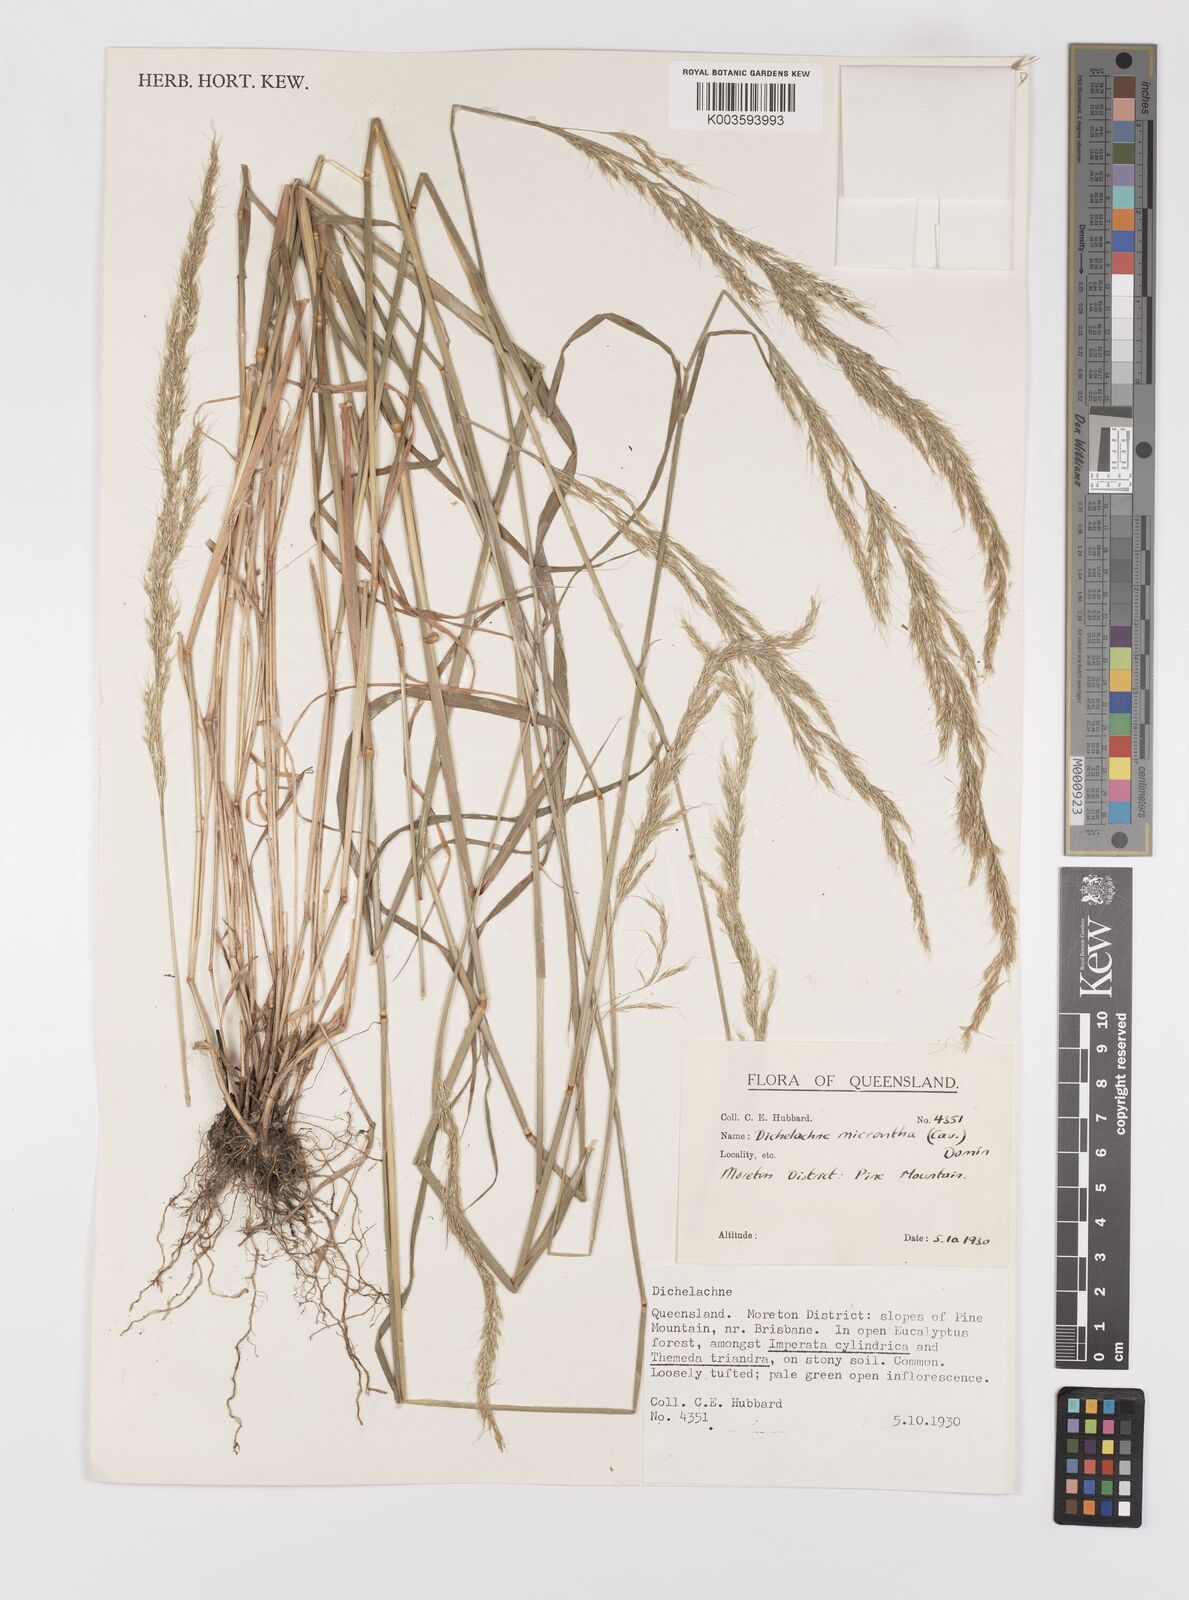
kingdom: Plantae
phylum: Tracheophyta
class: Liliopsida
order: Poales
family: Poaceae
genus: Dichelachne
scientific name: Dichelachne micrantha
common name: Plumegrass
